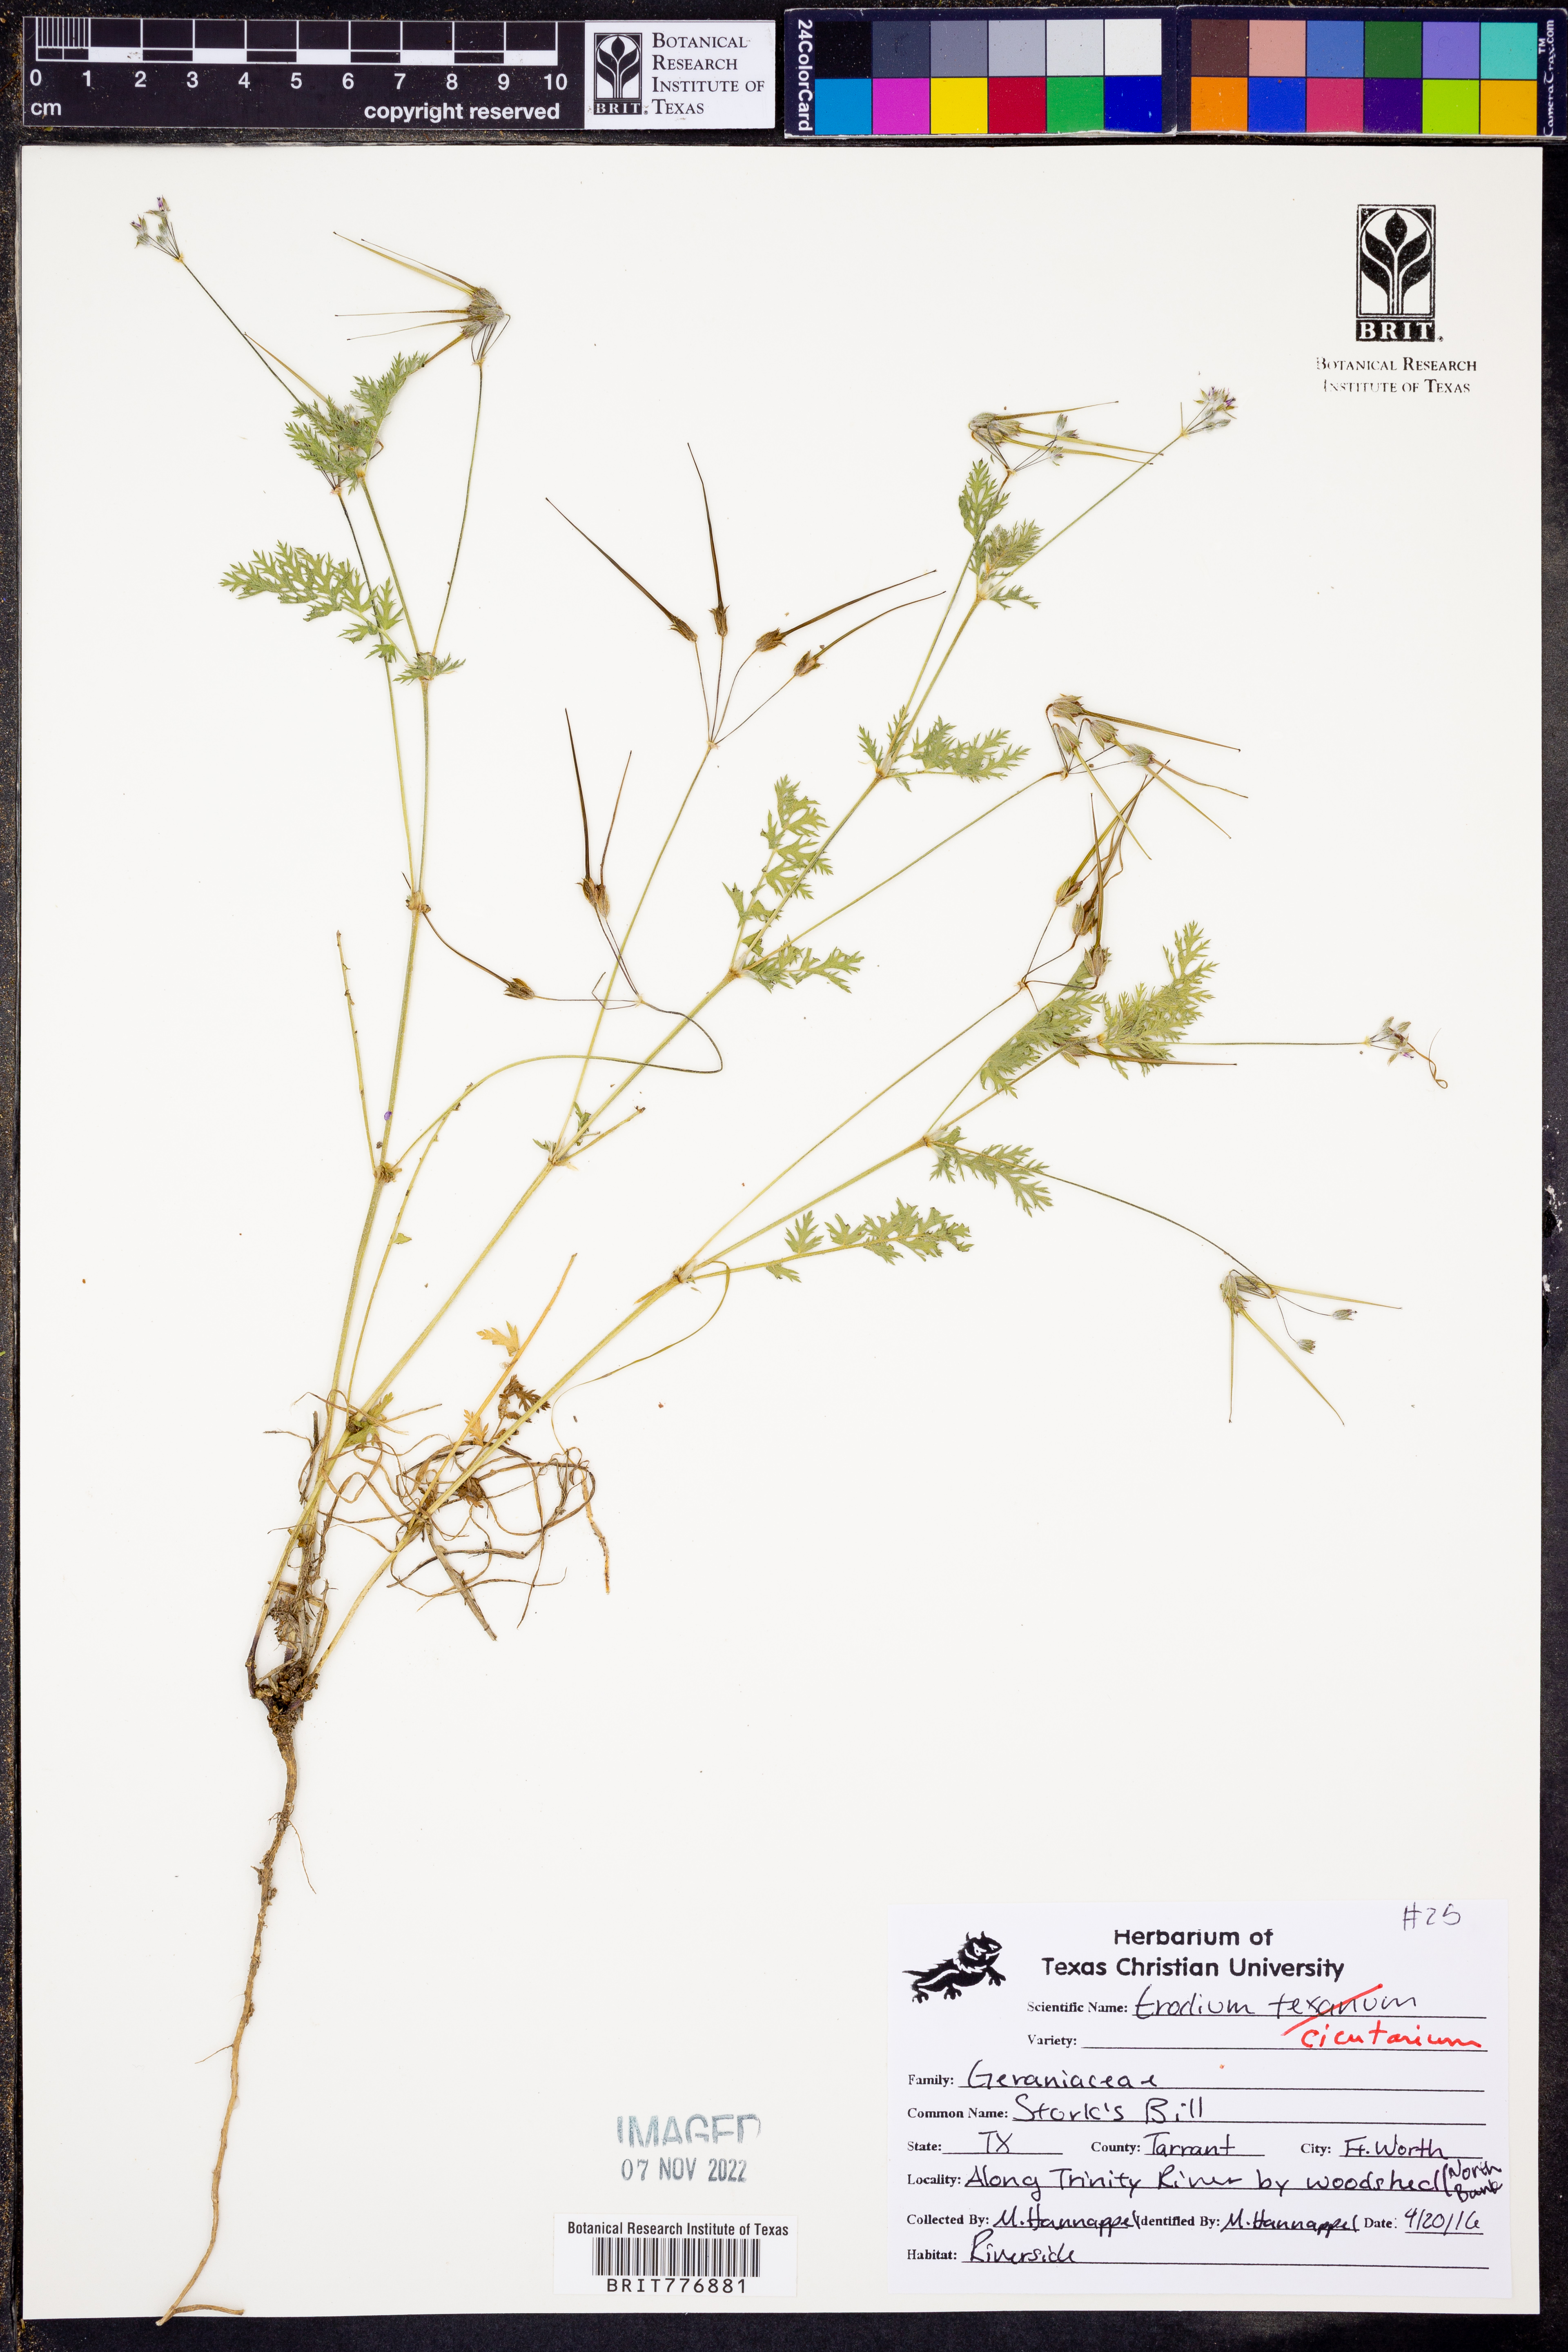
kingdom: Plantae
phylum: Tracheophyta
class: Magnoliopsida
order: Geraniales
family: Geraniaceae
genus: Erodium
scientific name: Erodium cicutarium
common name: Common stork's-bill
